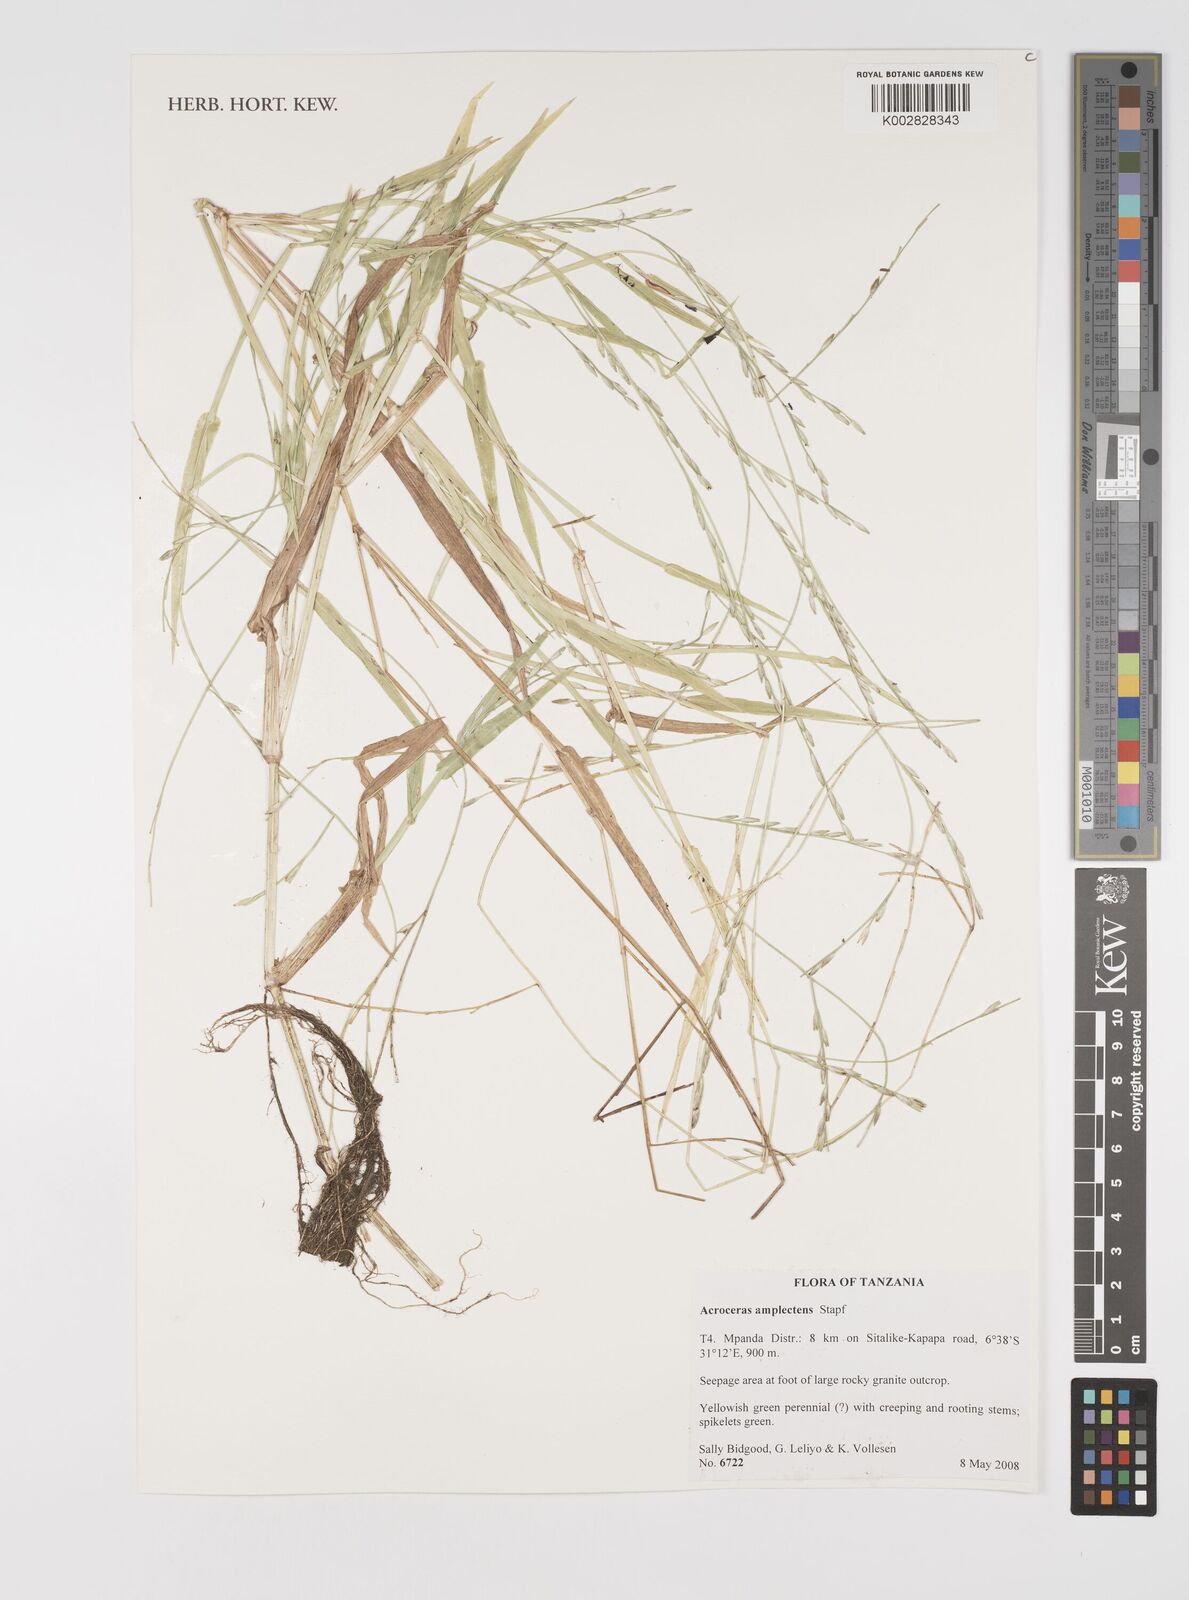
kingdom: Plantae
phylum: Tracheophyta
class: Liliopsida
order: Poales
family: Poaceae
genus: Acroceras
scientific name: Acroceras amplectens
